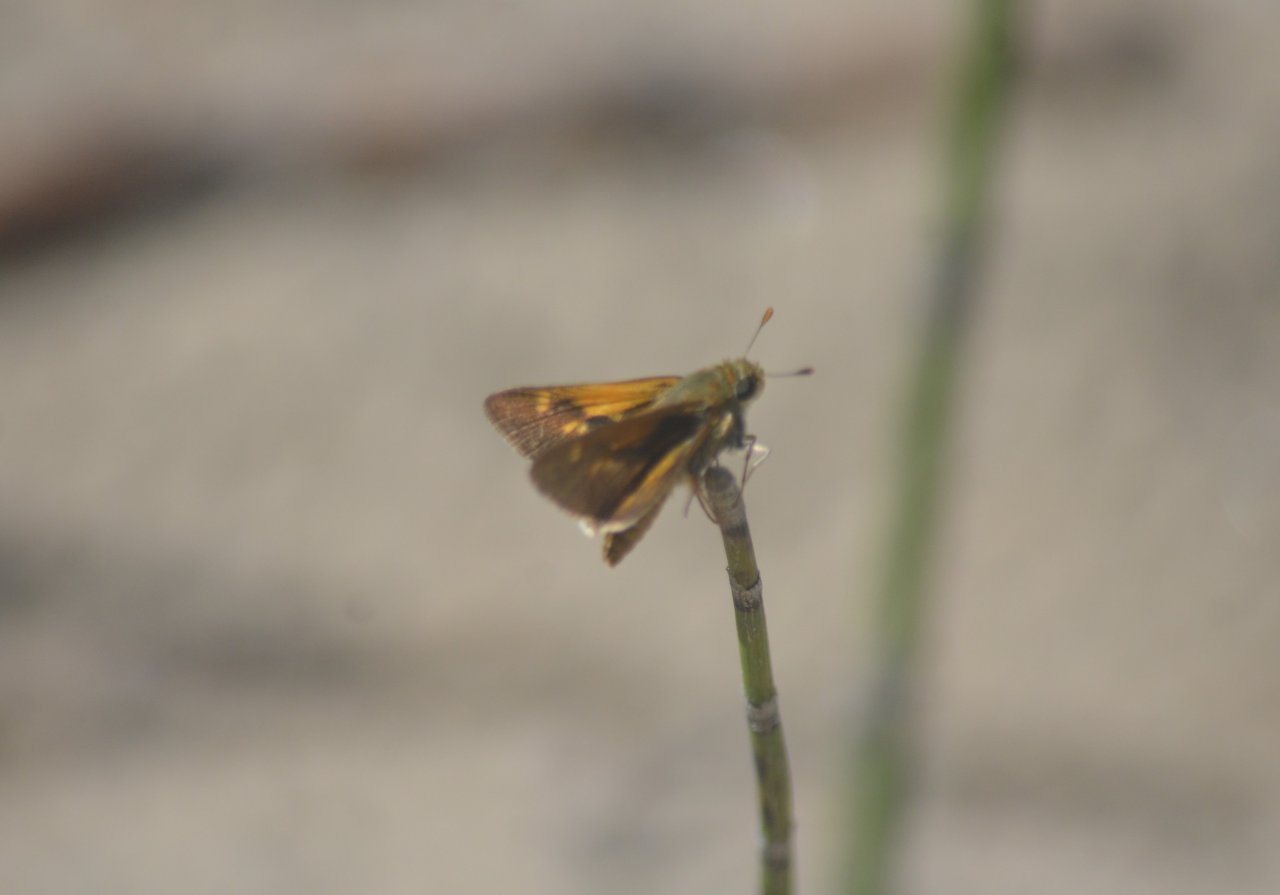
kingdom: Animalia
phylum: Arthropoda
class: Insecta
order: Lepidoptera
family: Hesperiidae
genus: Polites
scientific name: Polites
